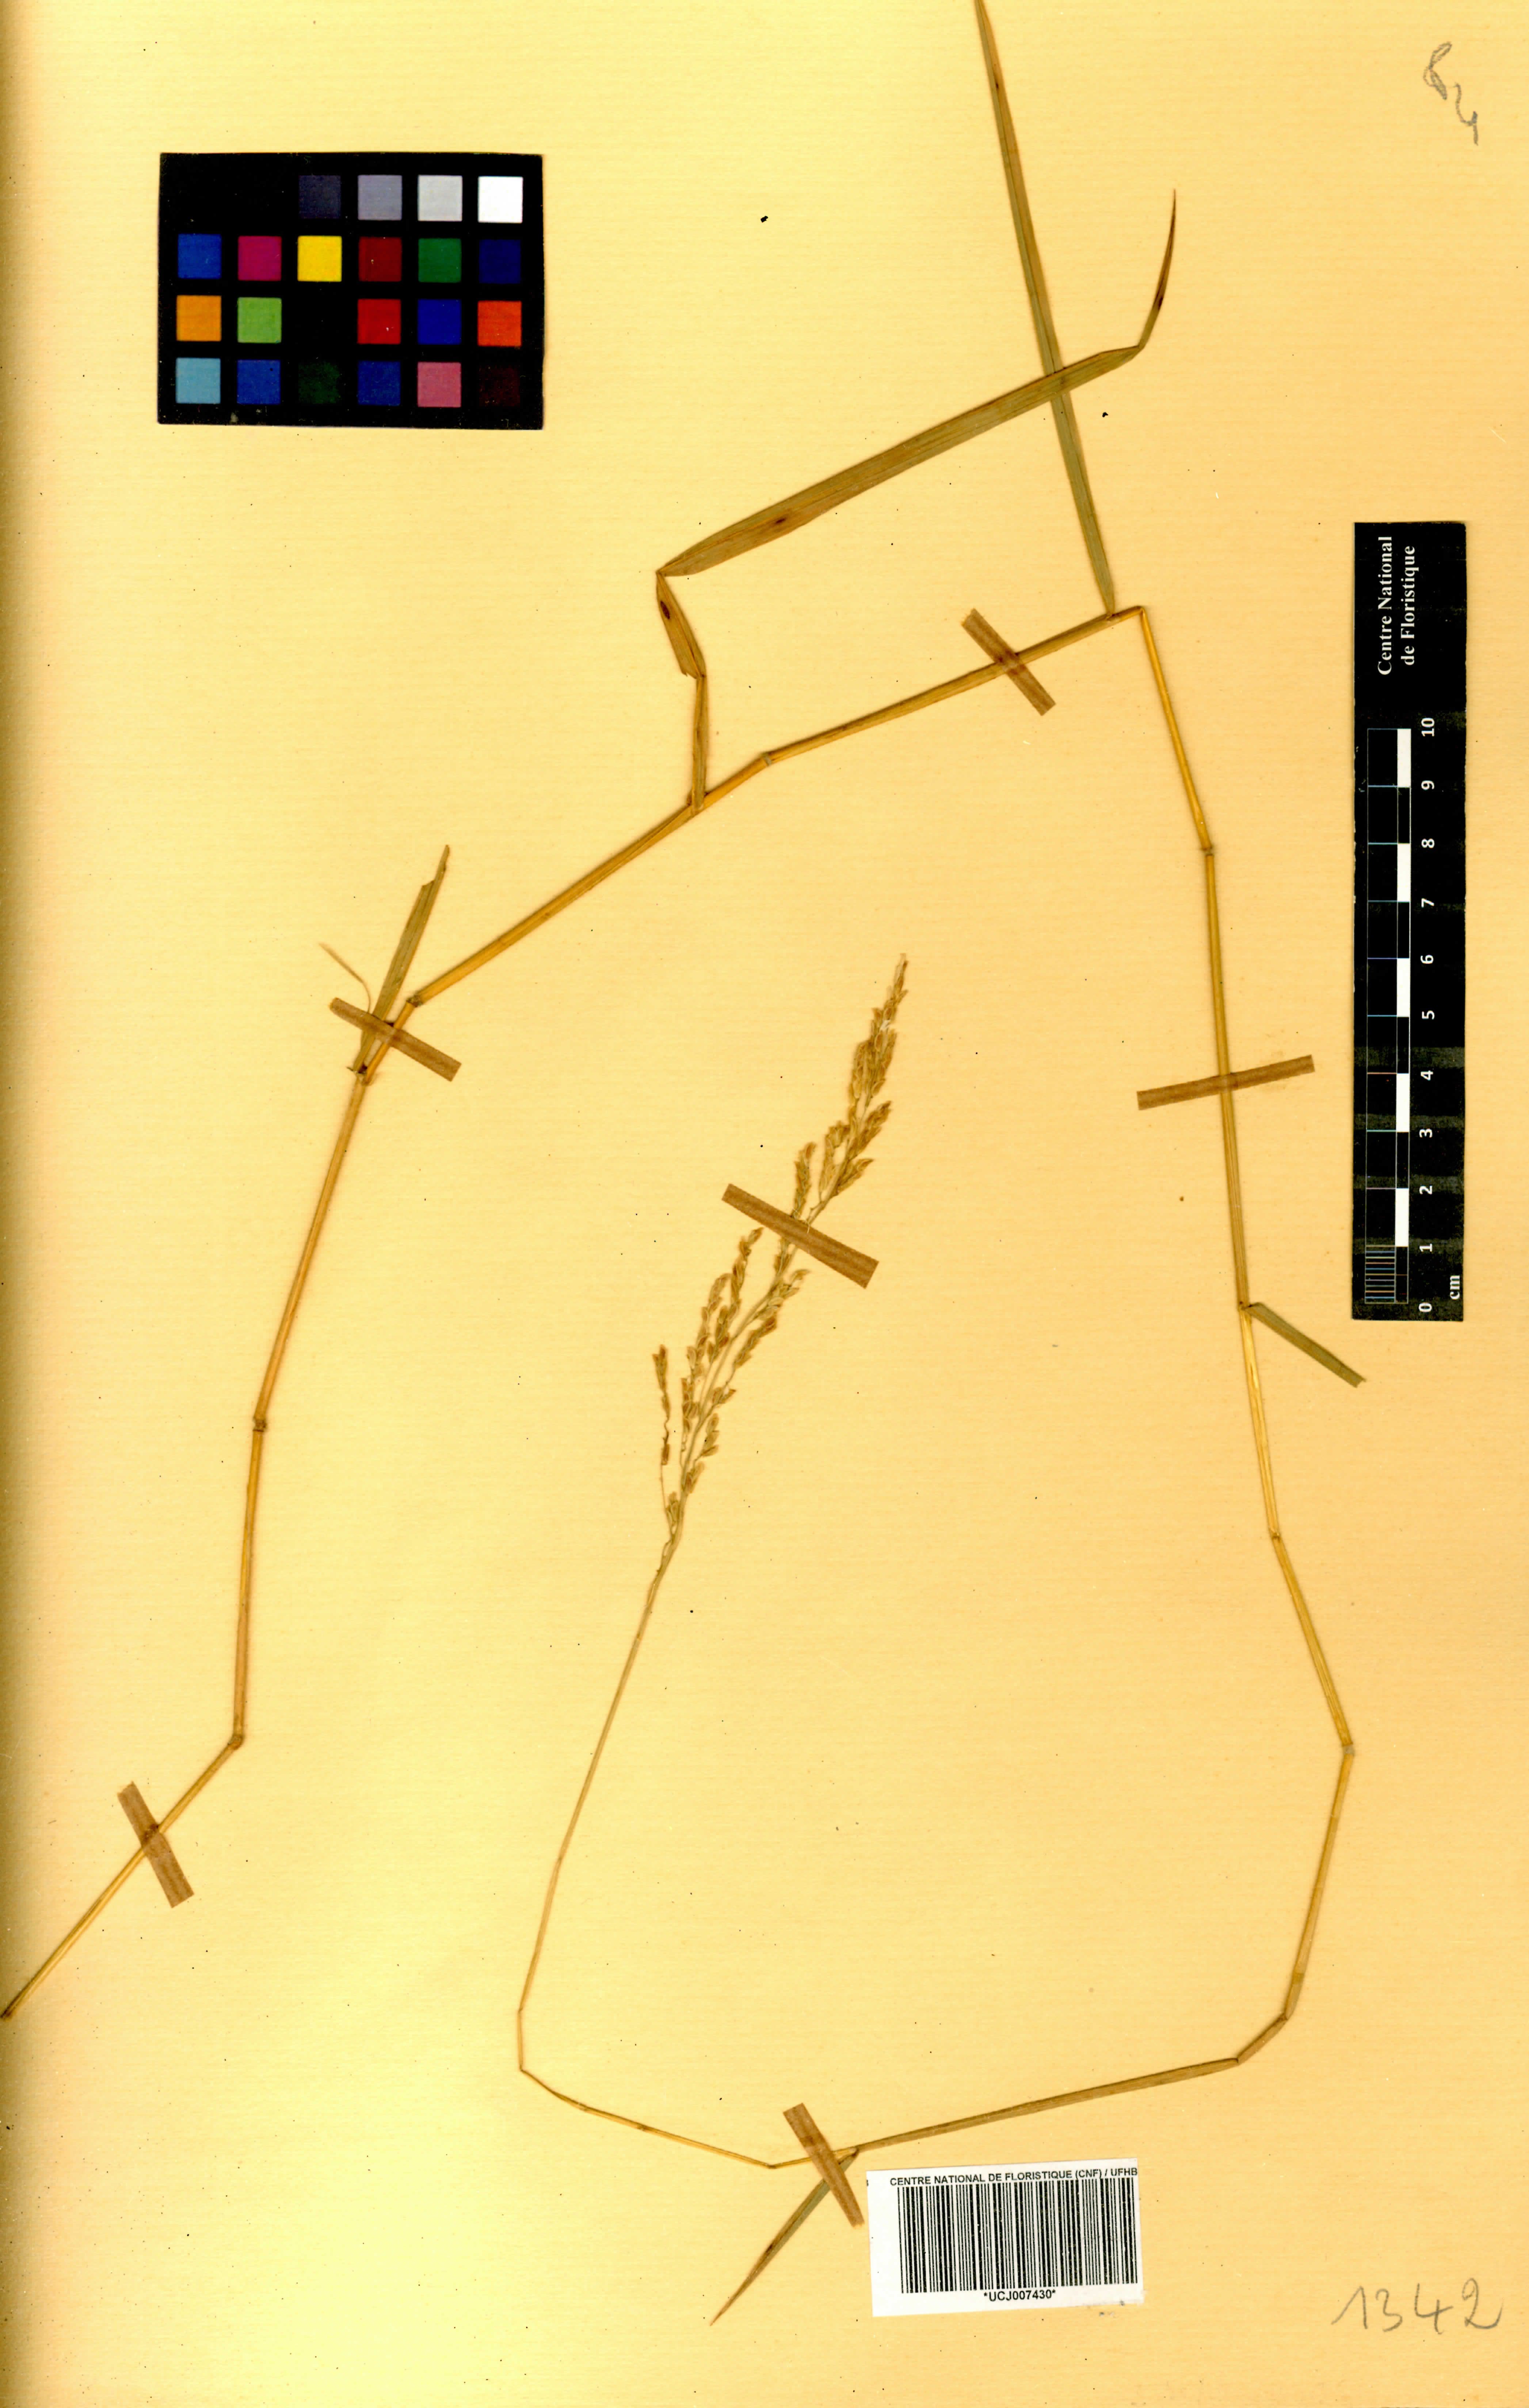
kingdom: Plantae
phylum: Tracheophyta
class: Liliopsida
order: Poales
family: Poaceae
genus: Leersia
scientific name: Leersia hexandra
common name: Southern cut grass
